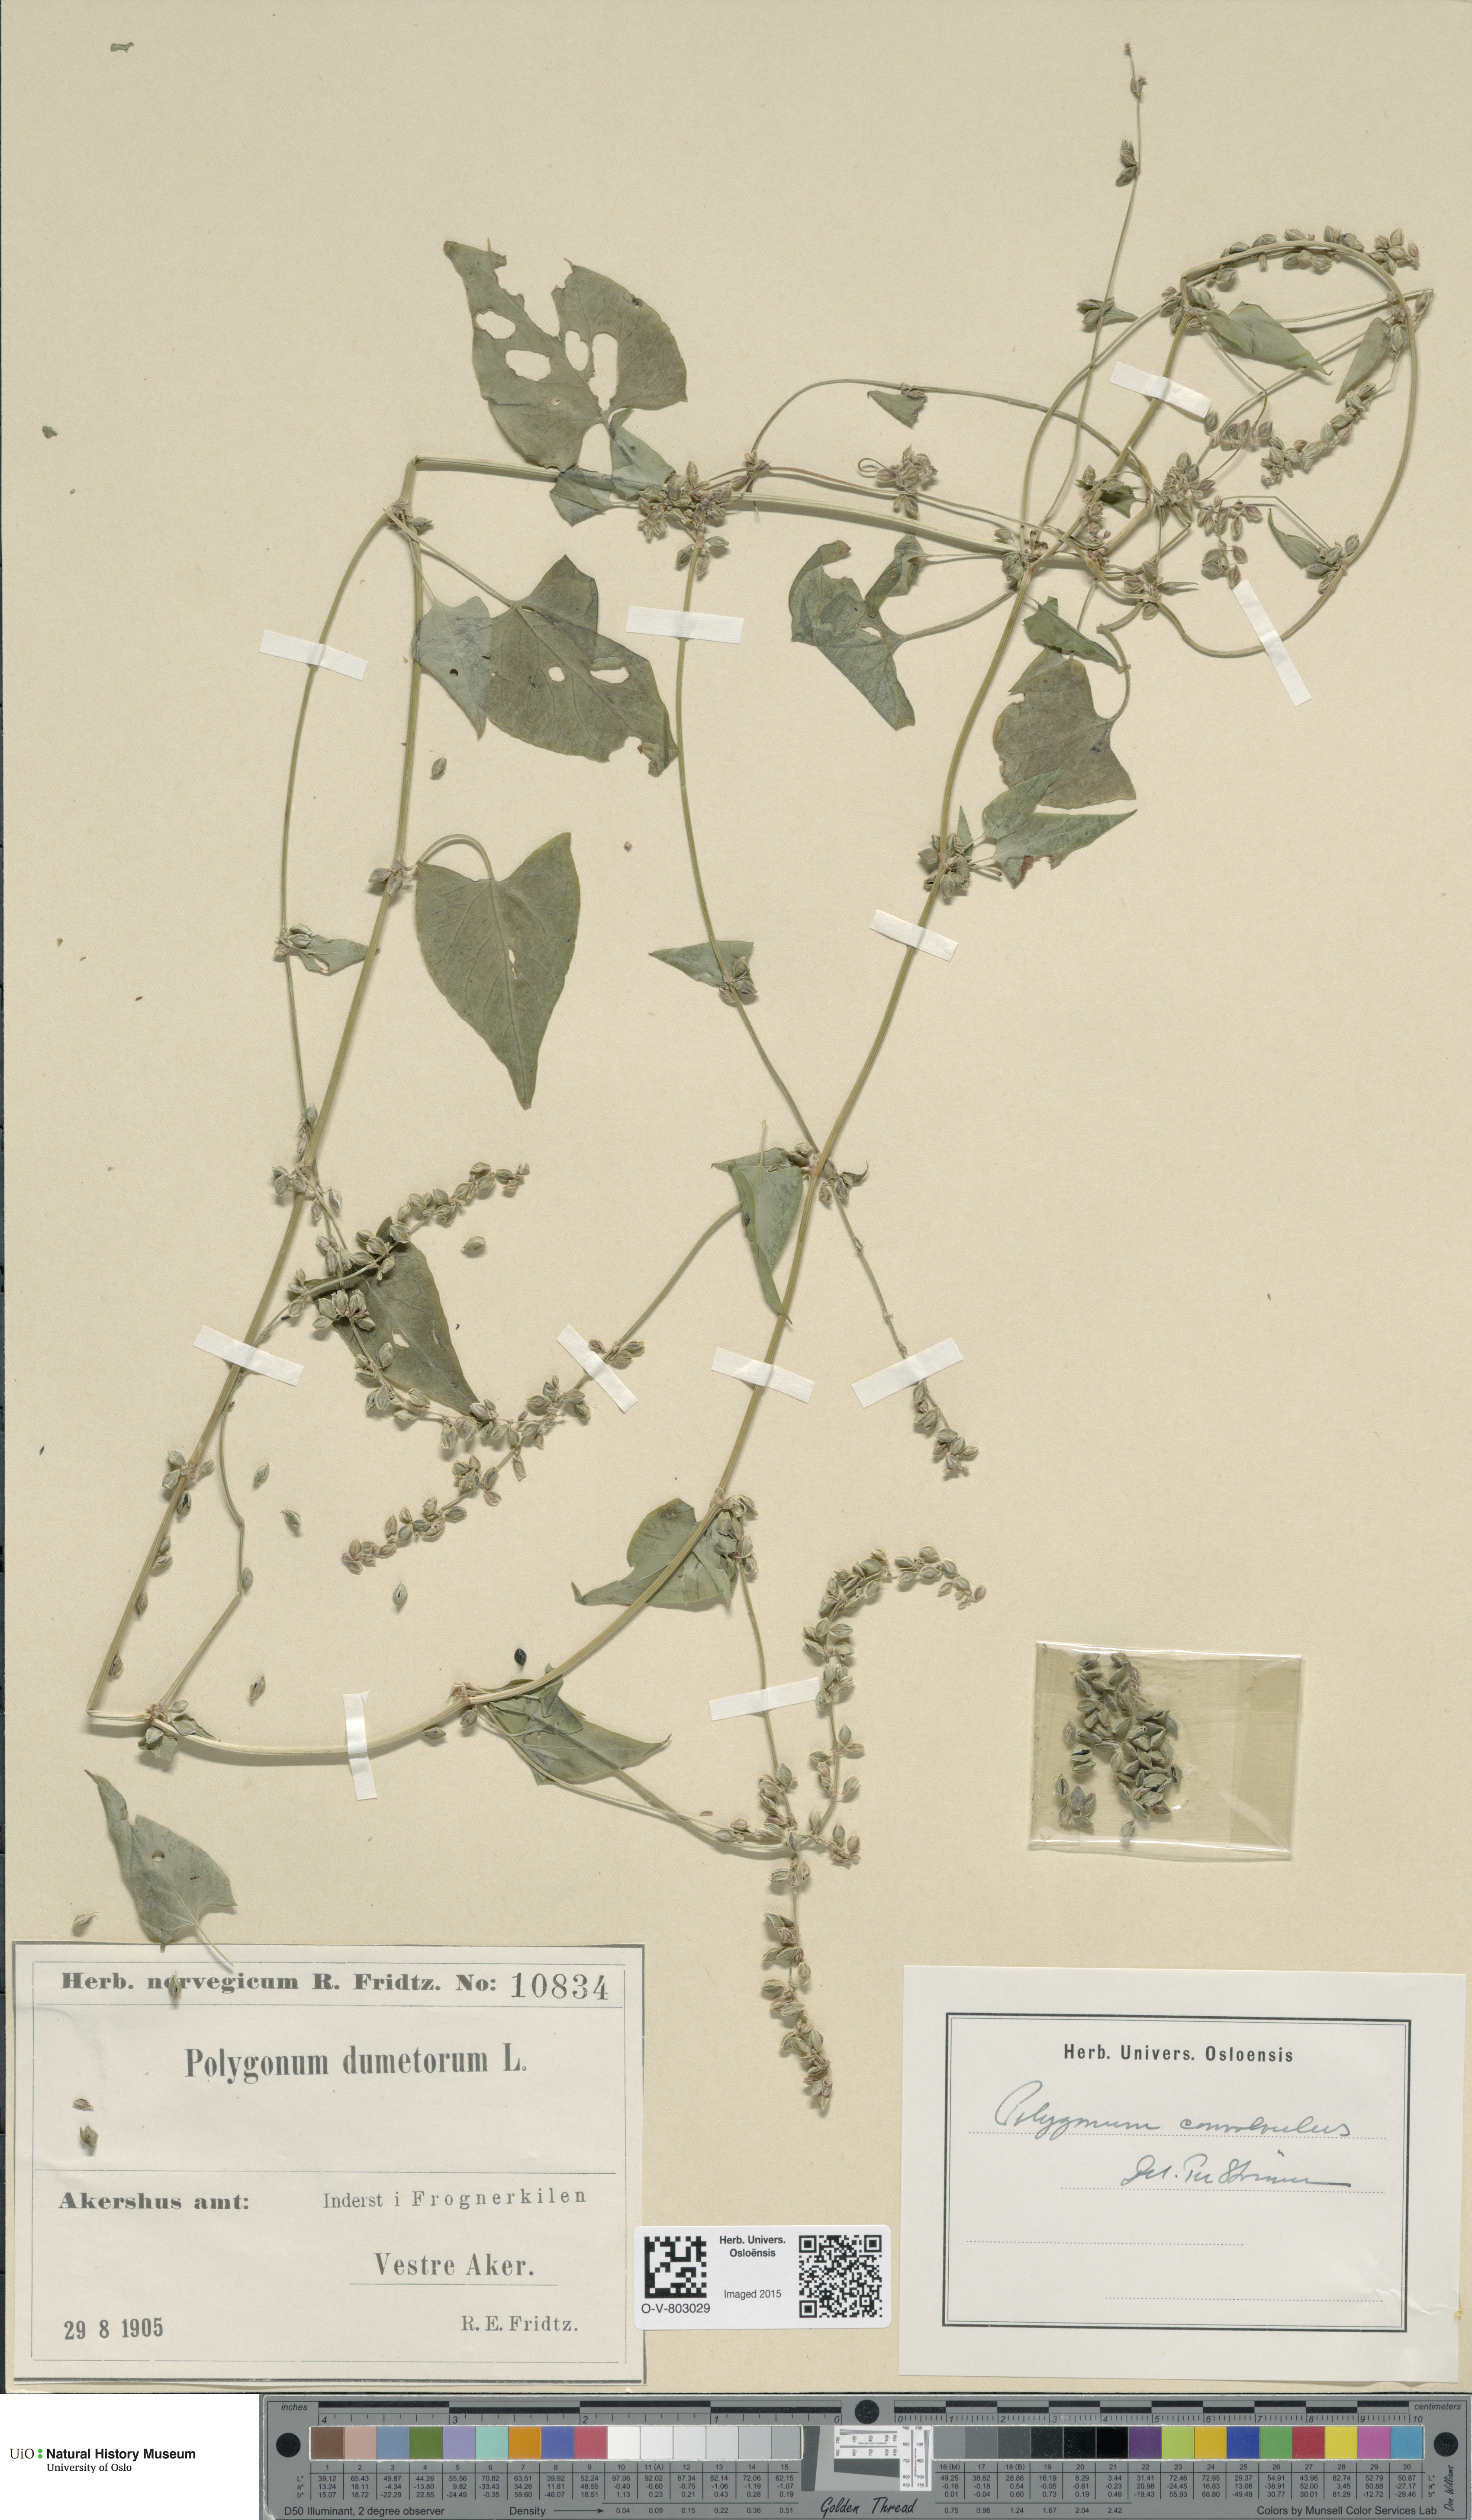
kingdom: Plantae
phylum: Tracheophyta
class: Magnoliopsida
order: Caryophyllales
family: Polygonaceae
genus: Fallopia
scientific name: Fallopia convolvulus
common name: Black bindweed
